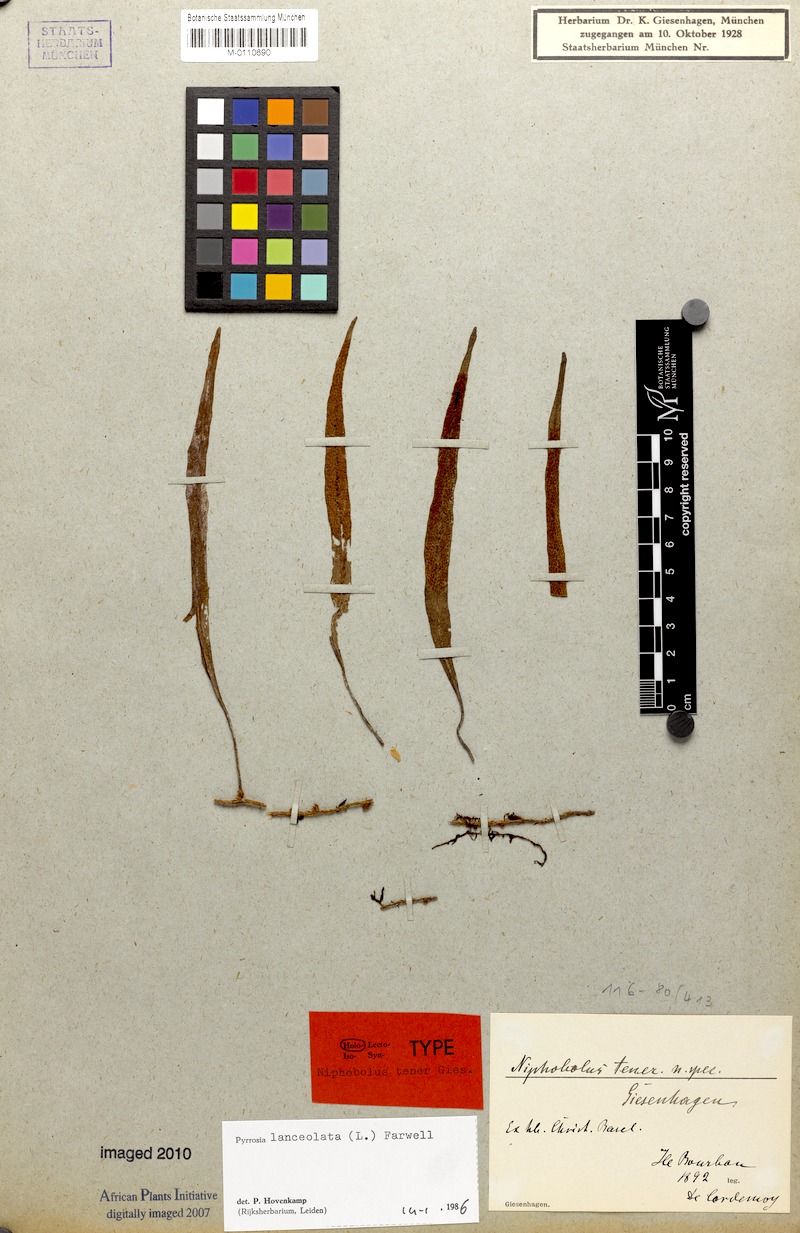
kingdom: Plantae
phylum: Tracheophyta
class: Polypodiopsida
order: Polypodiales
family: Polypodiaceae
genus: Pyrrosia
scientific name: Pyrrosia lanceolata
